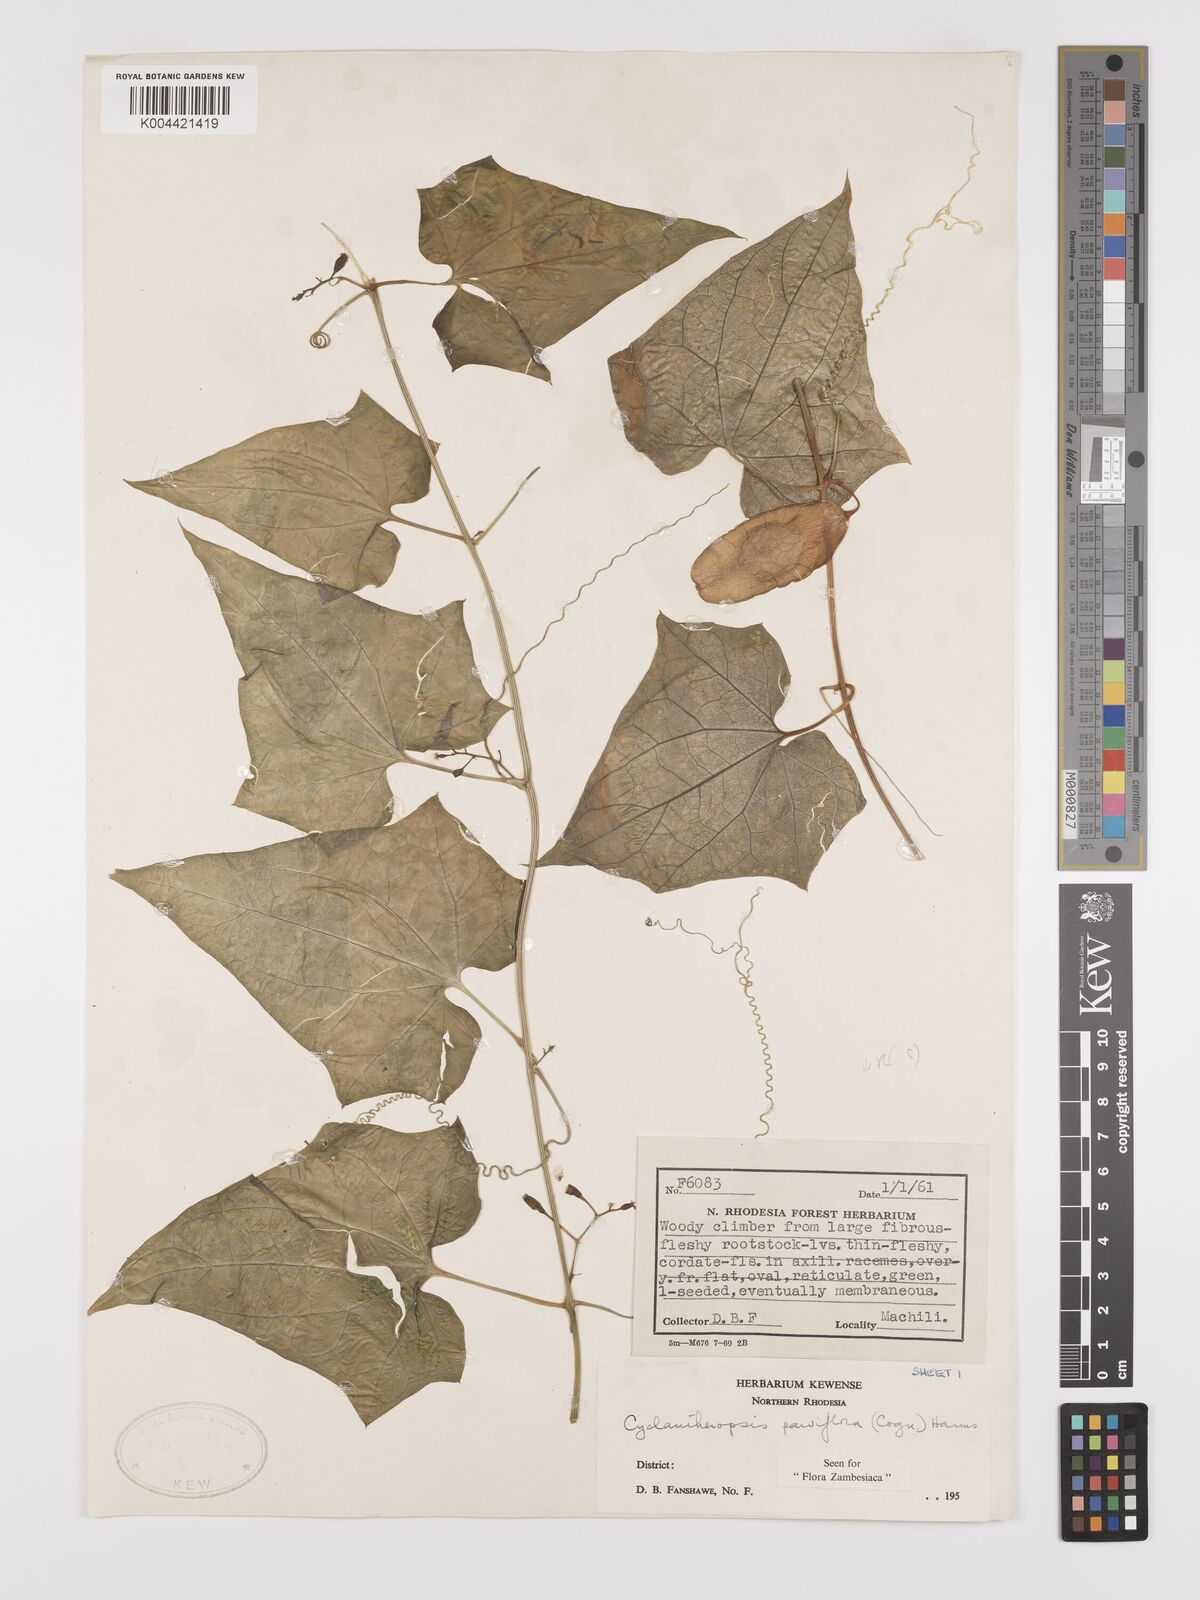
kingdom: Plantae
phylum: Tracheophyta
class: Magnoliopsida
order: Cucurbitales
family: Cucurbitaceae
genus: Cyclantheropsis
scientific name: Cyclantheropsis parviflora
